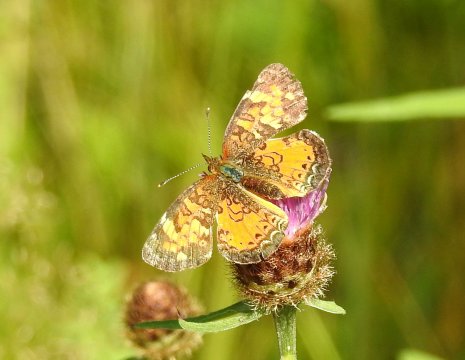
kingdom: Animalia
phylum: Arthropoda
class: Insecta
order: Lepidoptera
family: Nymphalidae
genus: Phyciodes
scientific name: Phyciodes tharos
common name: Northern Crescent
